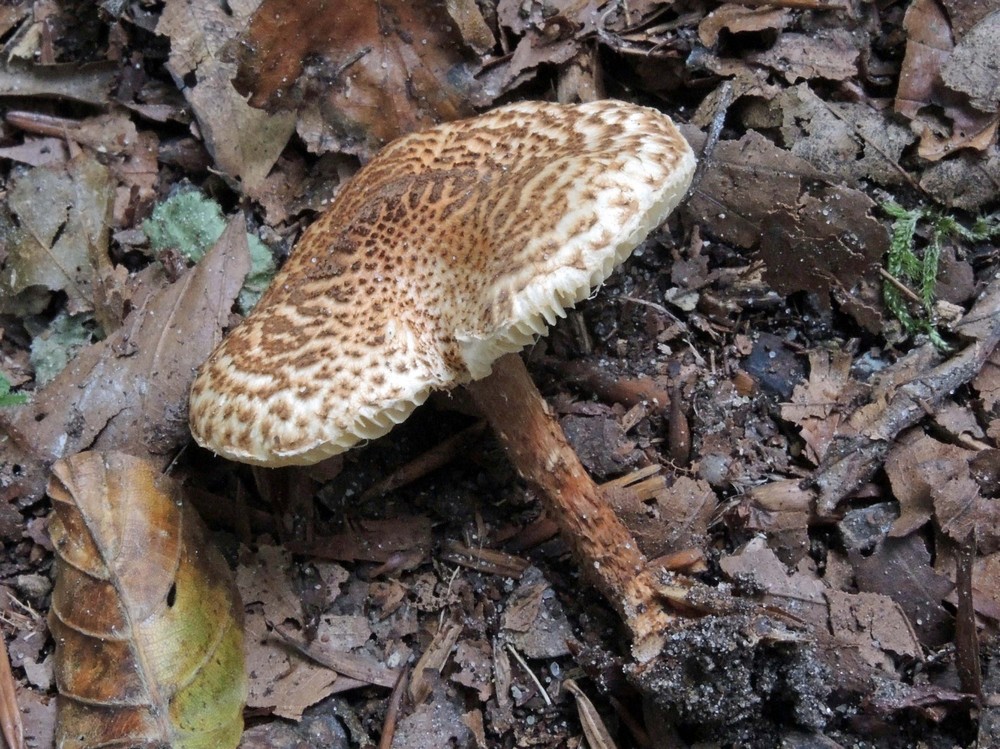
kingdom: Fungi
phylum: Basidiomycota
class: Agaricomycetes
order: Agaricales
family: Agaricaceae
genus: Lepiota
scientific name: Lepiota
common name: parasolhat
